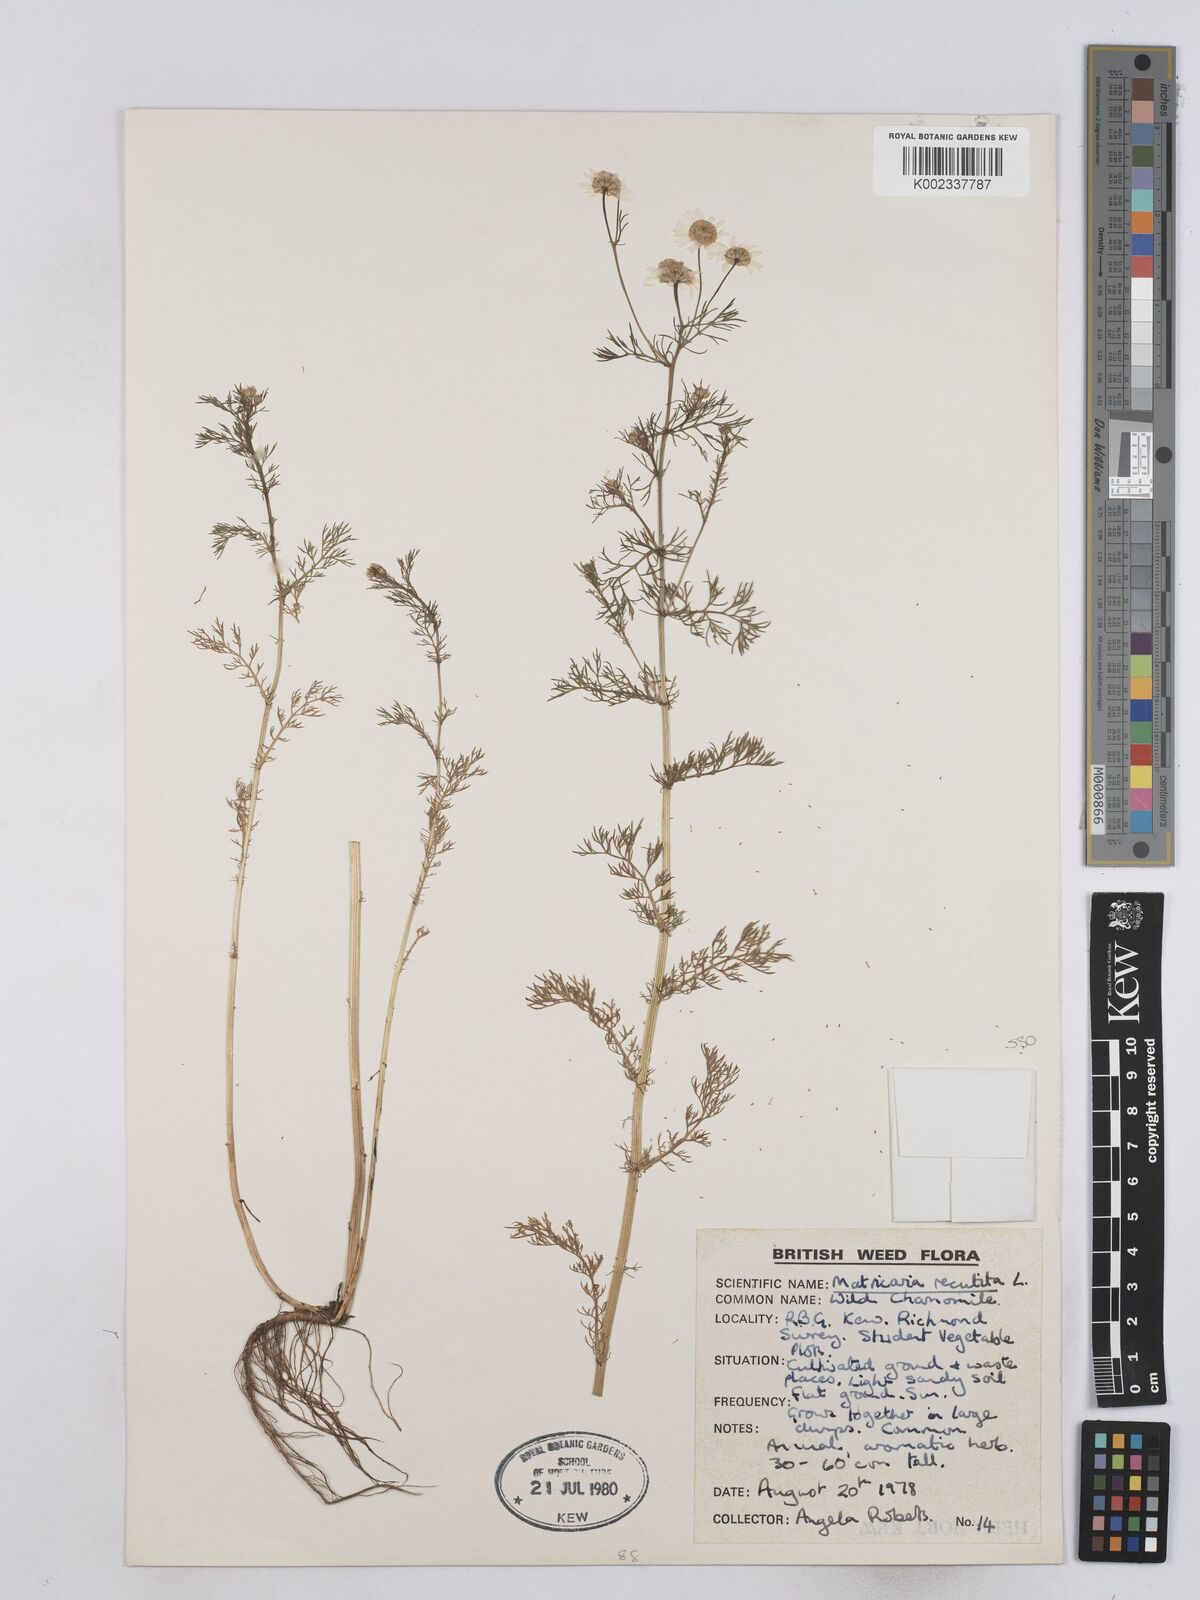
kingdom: Plantae
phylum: Tracheophyta
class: Magnoliopsida
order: Asterales
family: Asteraceae
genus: Matricaria
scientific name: Matricaria chamomilla
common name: Scented mayweed
